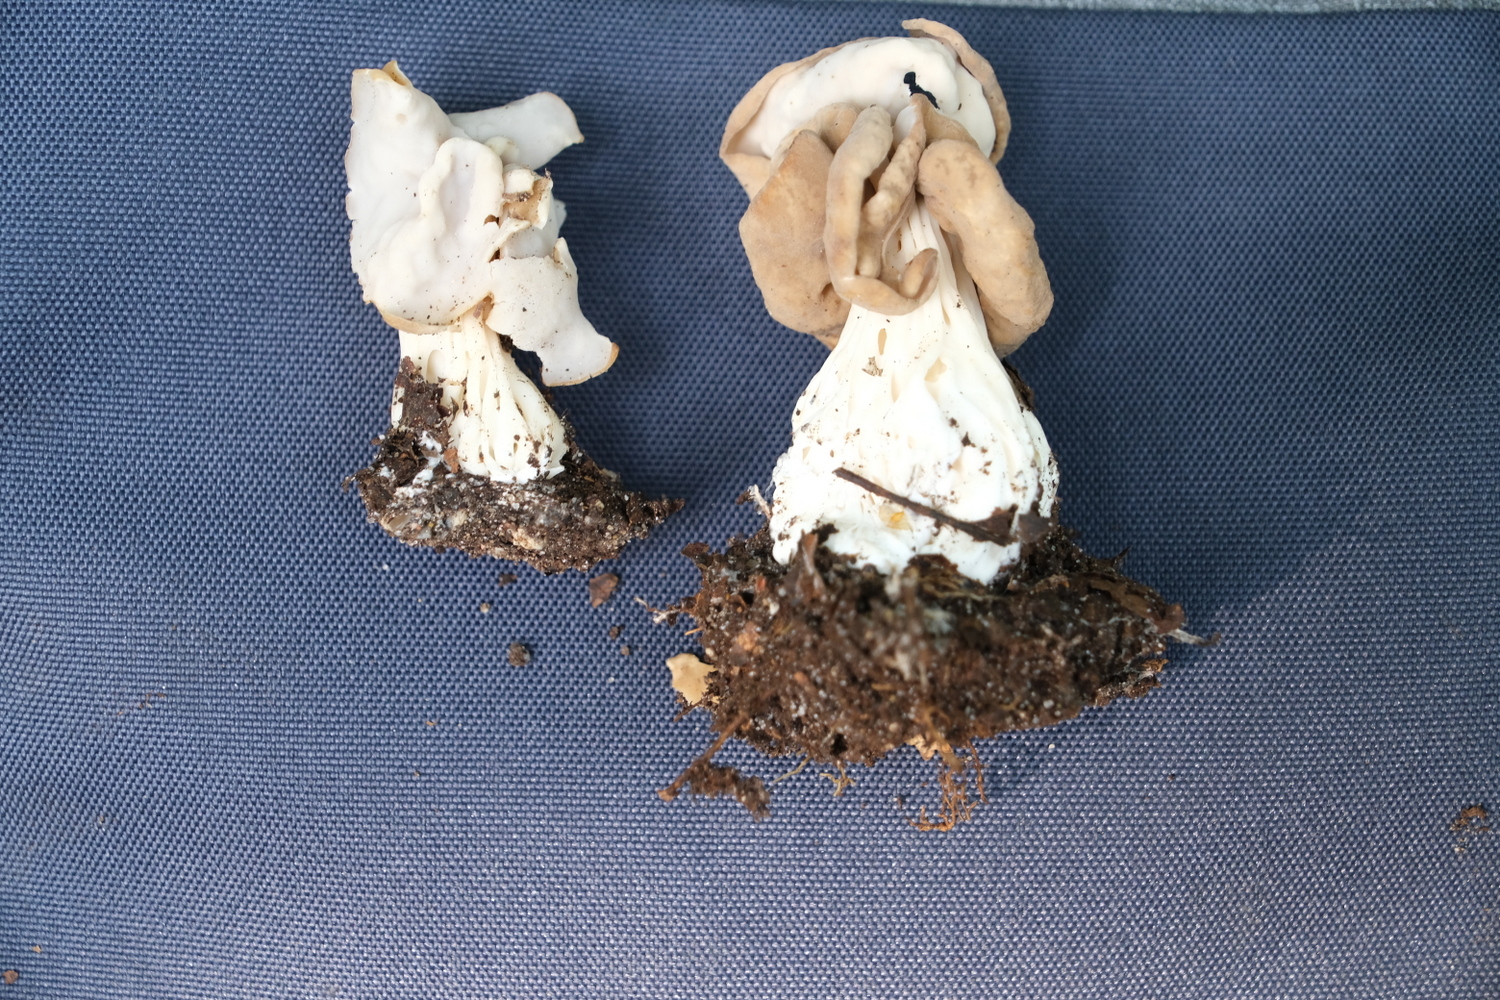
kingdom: Fungi
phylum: Ascomycota
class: Pezizomycetes
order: Pezizales
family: Helvellaceae
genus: Helvella
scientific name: Helvella crispa
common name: kruset foldhat
